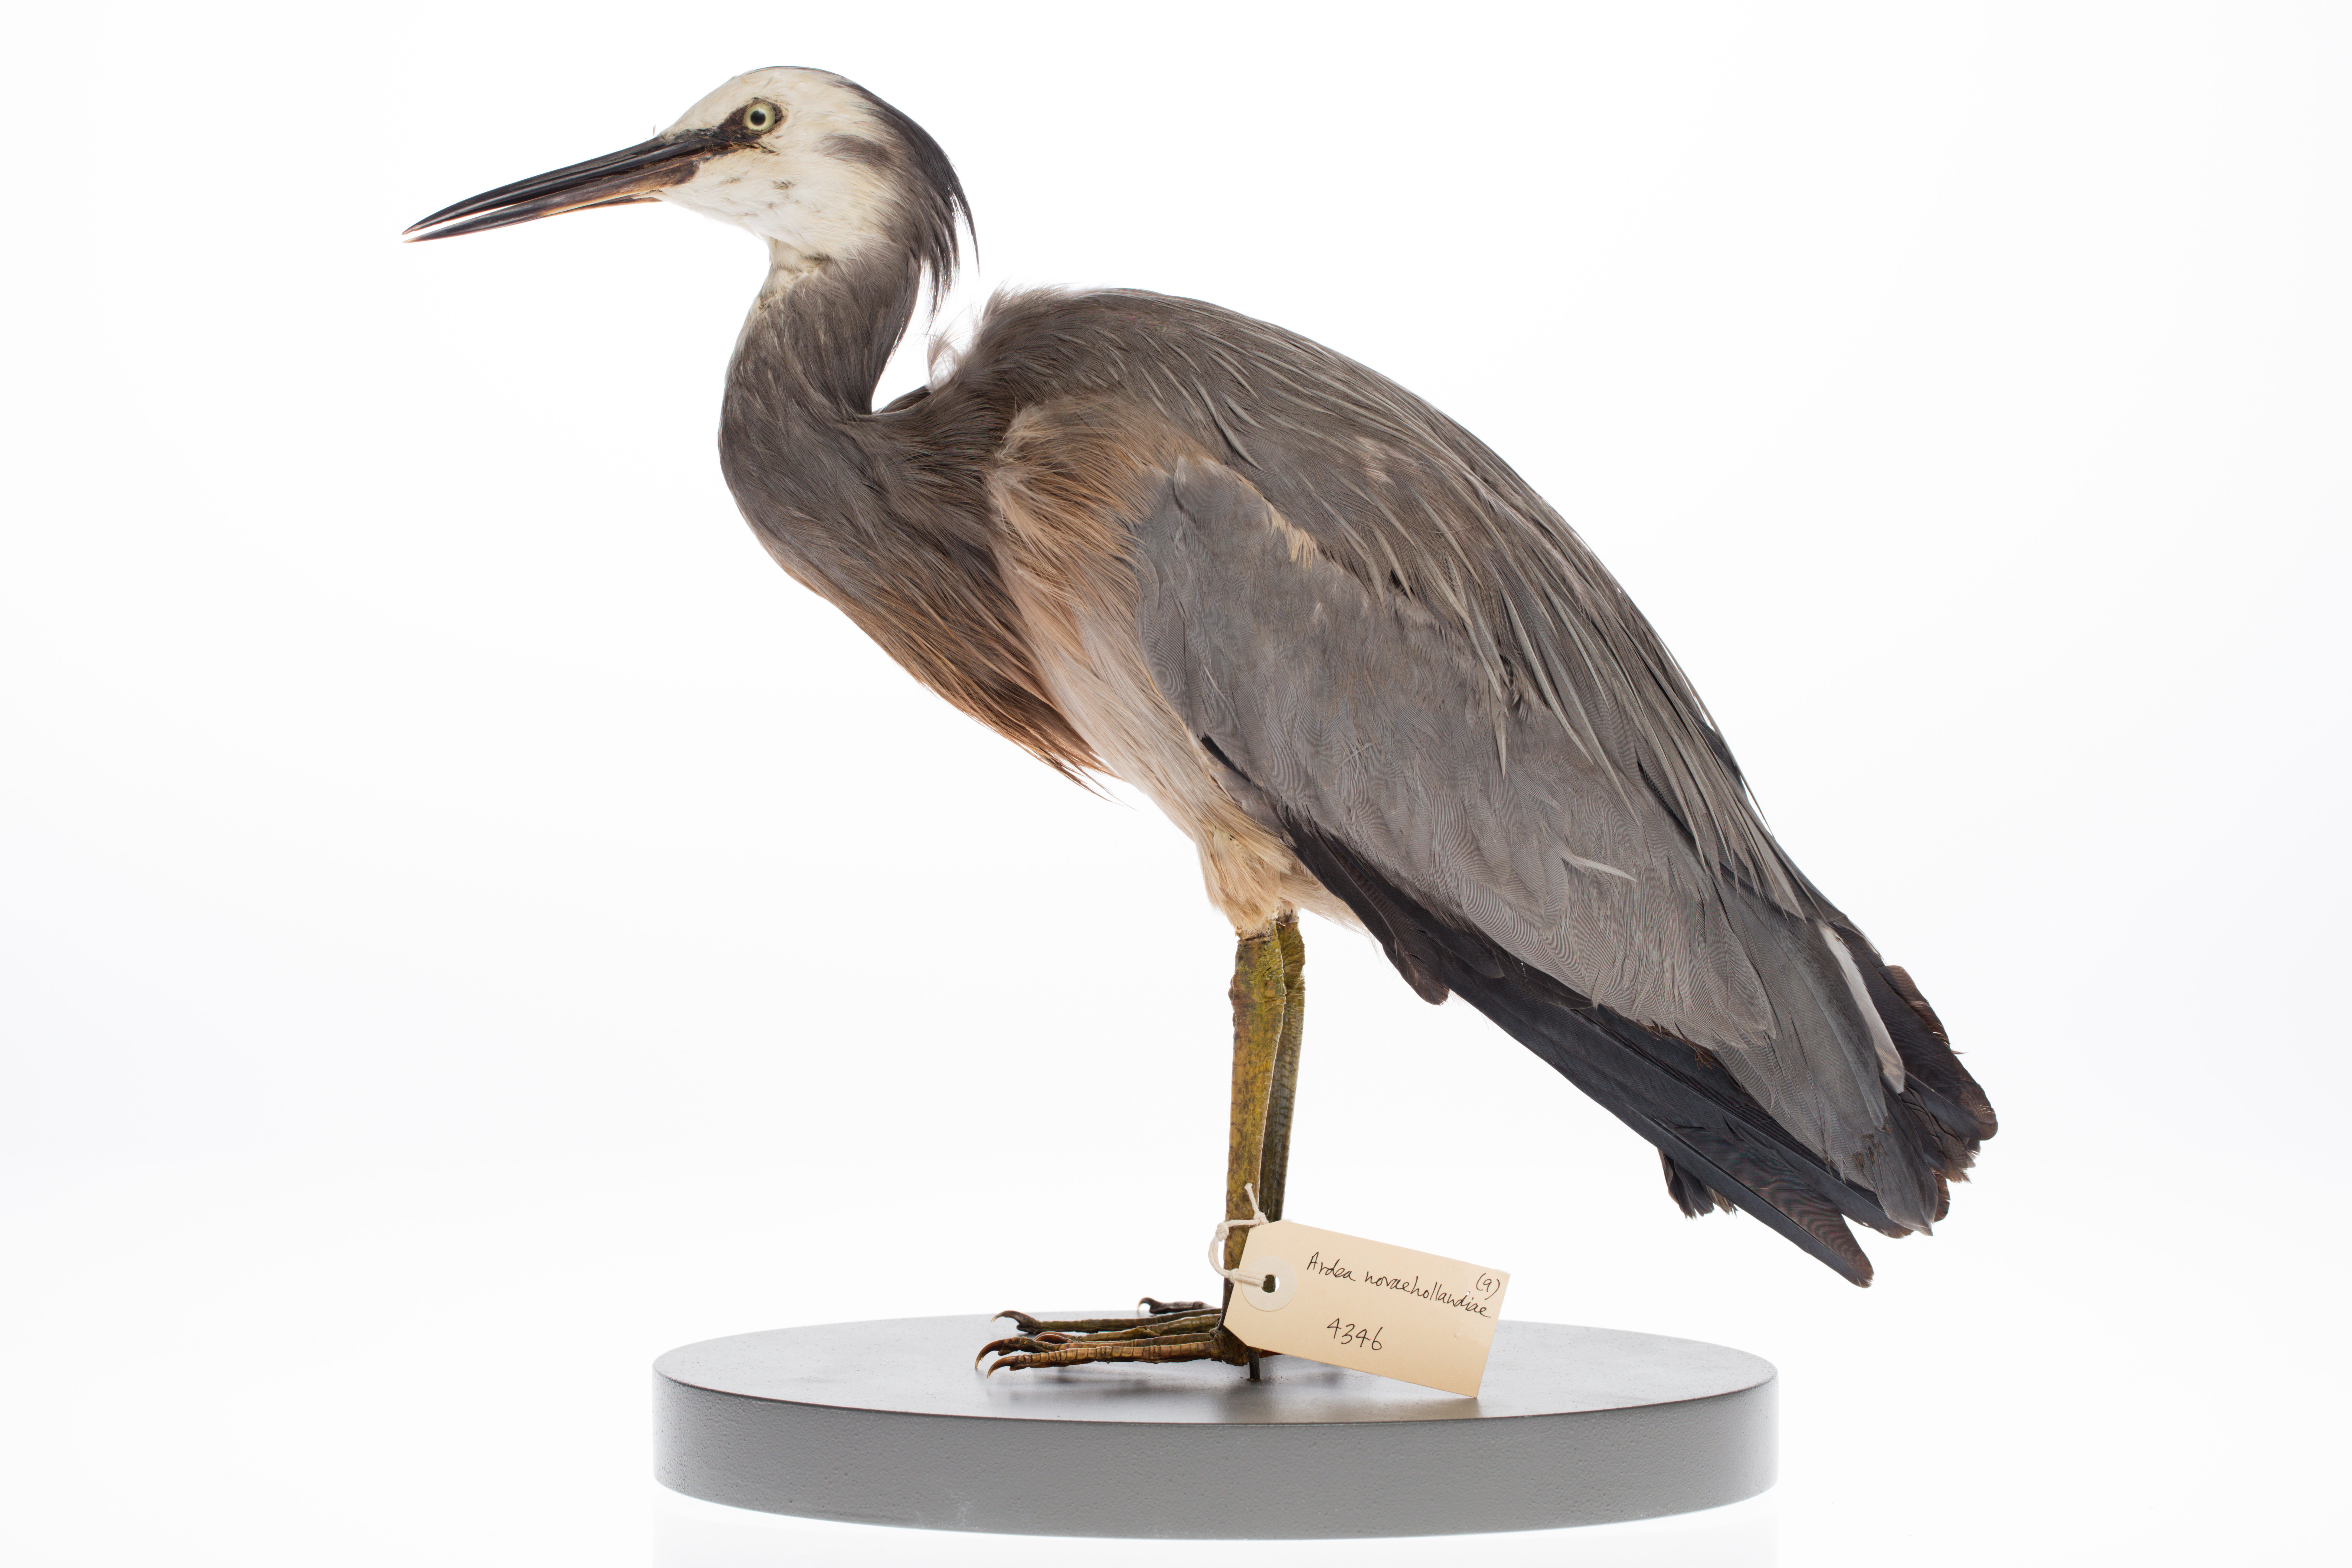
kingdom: Animalia
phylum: Chordata
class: Aves
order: Pelecaniformes
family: Ardeidae
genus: Egretta
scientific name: Egretta novaehollandiae
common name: White-faced heron
